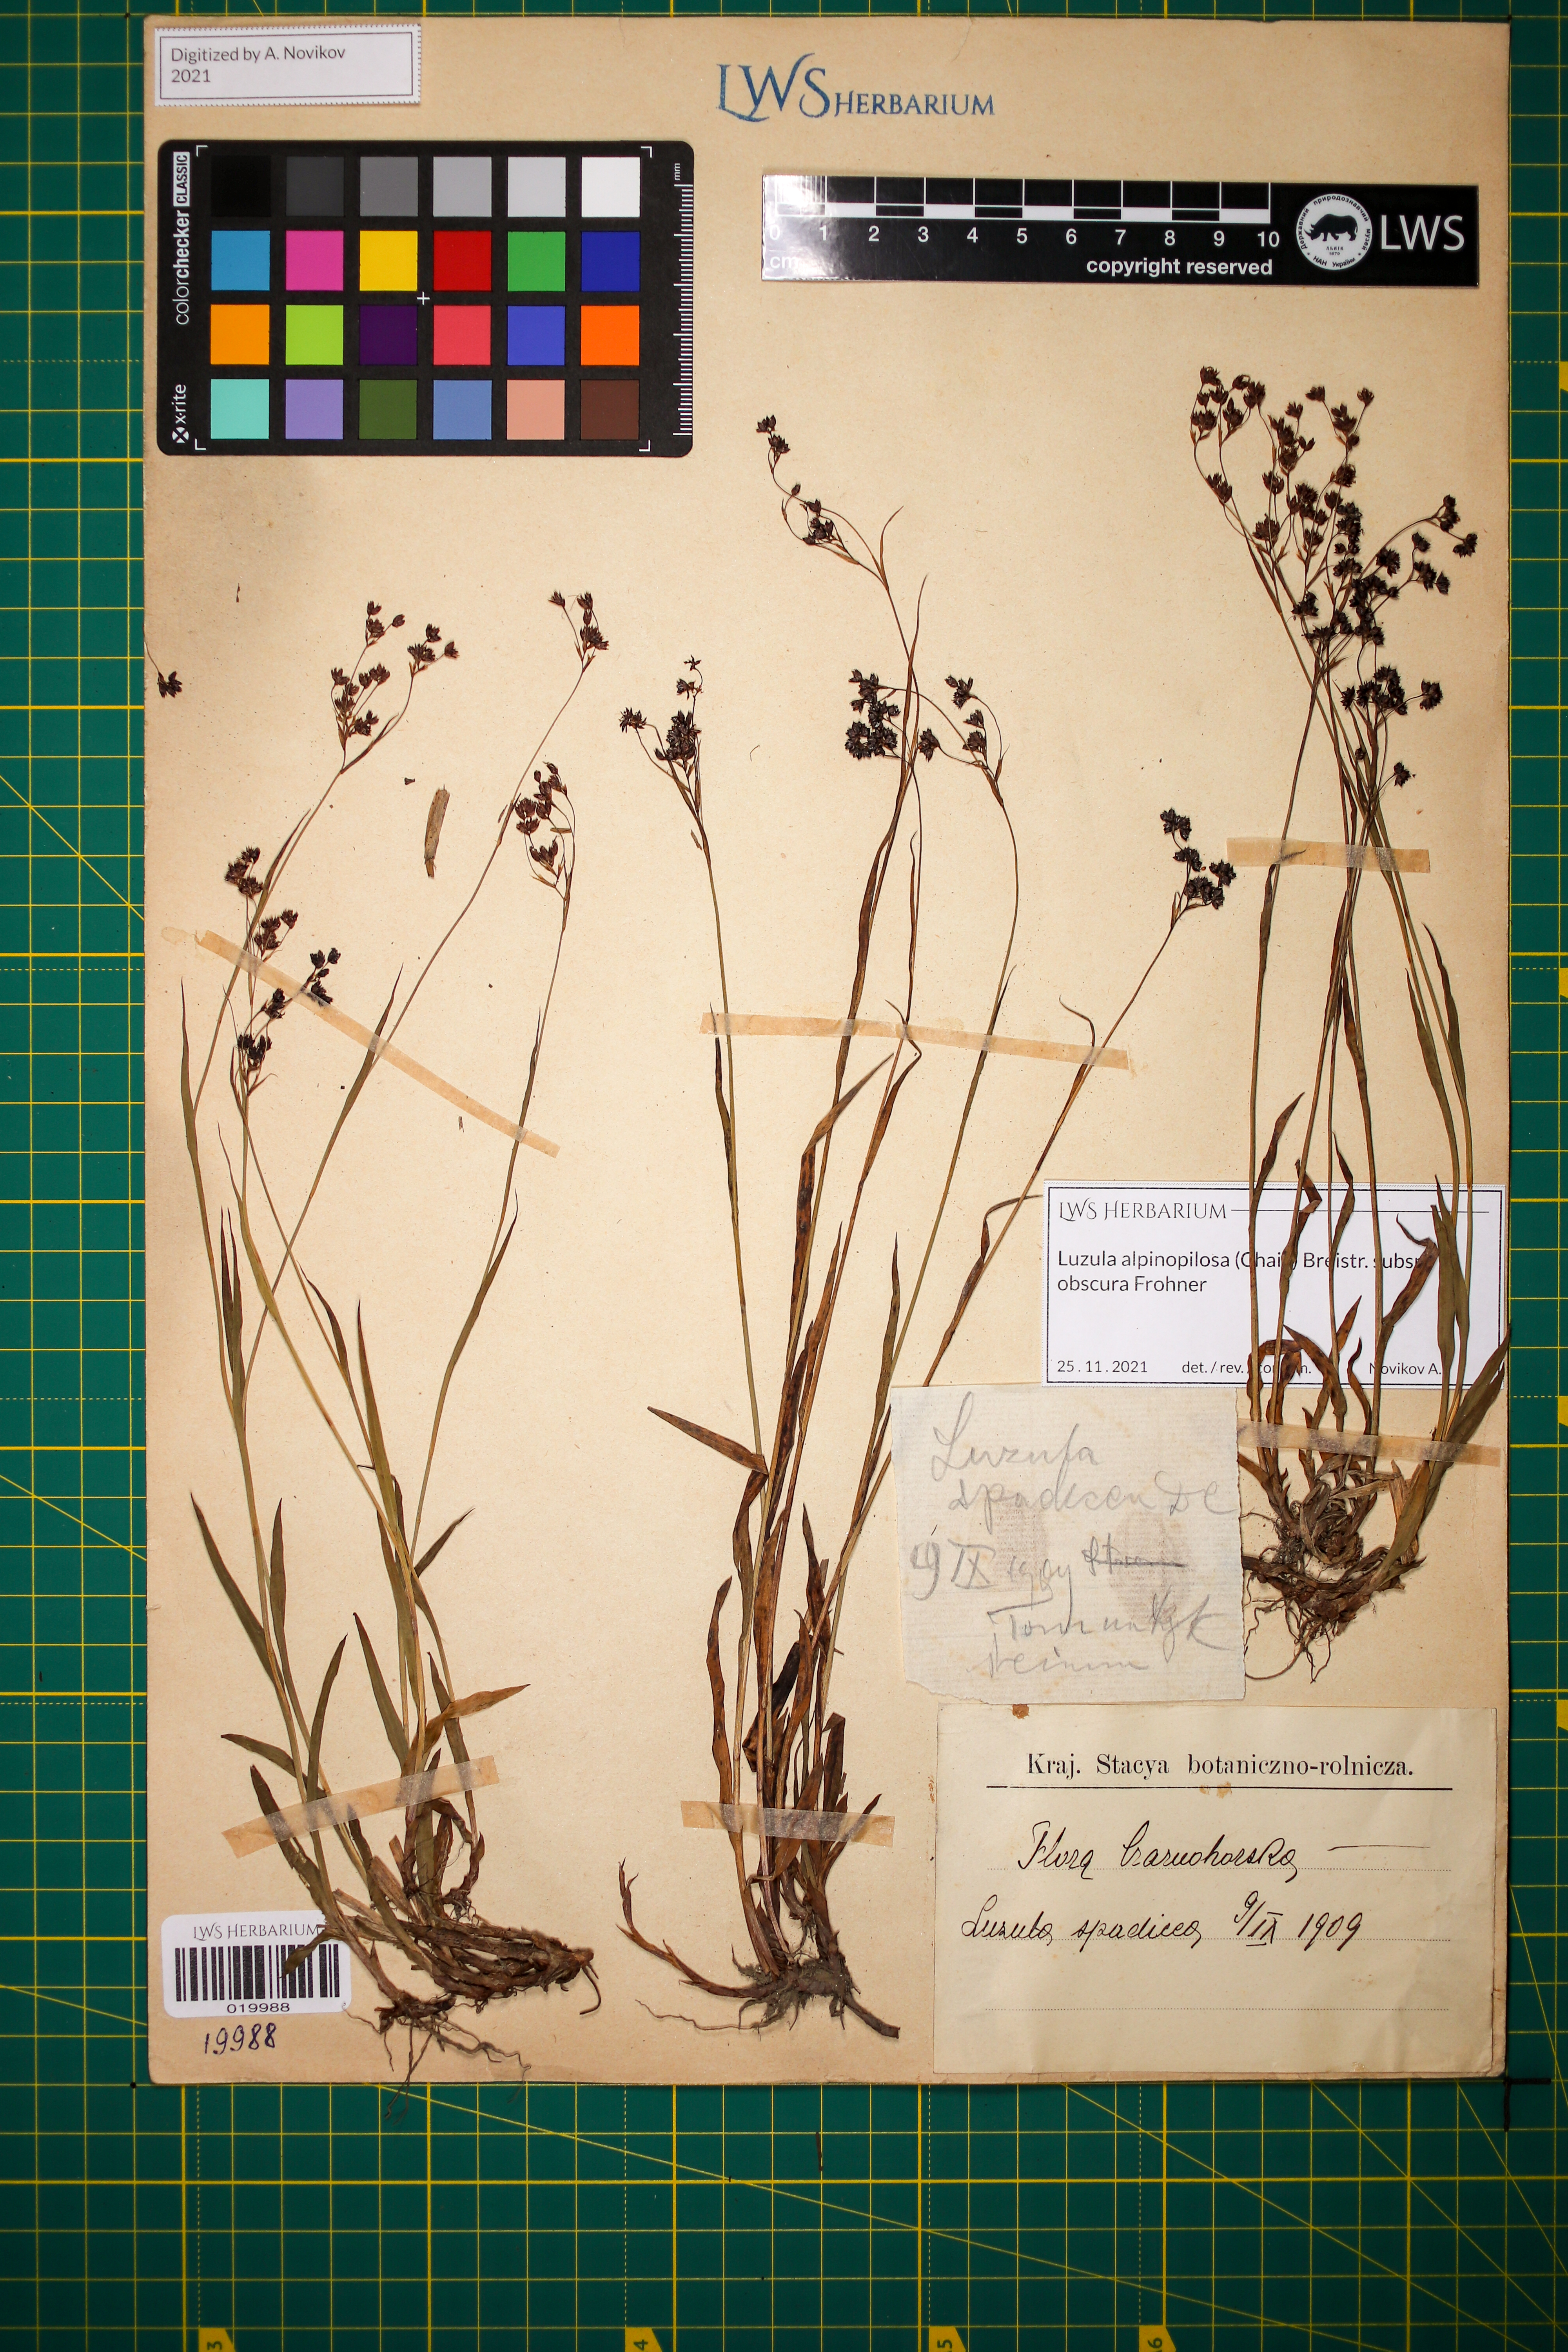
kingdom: Plantae
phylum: Tracheophyta
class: Liliopsida
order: Poales
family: Juncaceae
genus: Luzula
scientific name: Luzula alpinopilosa
